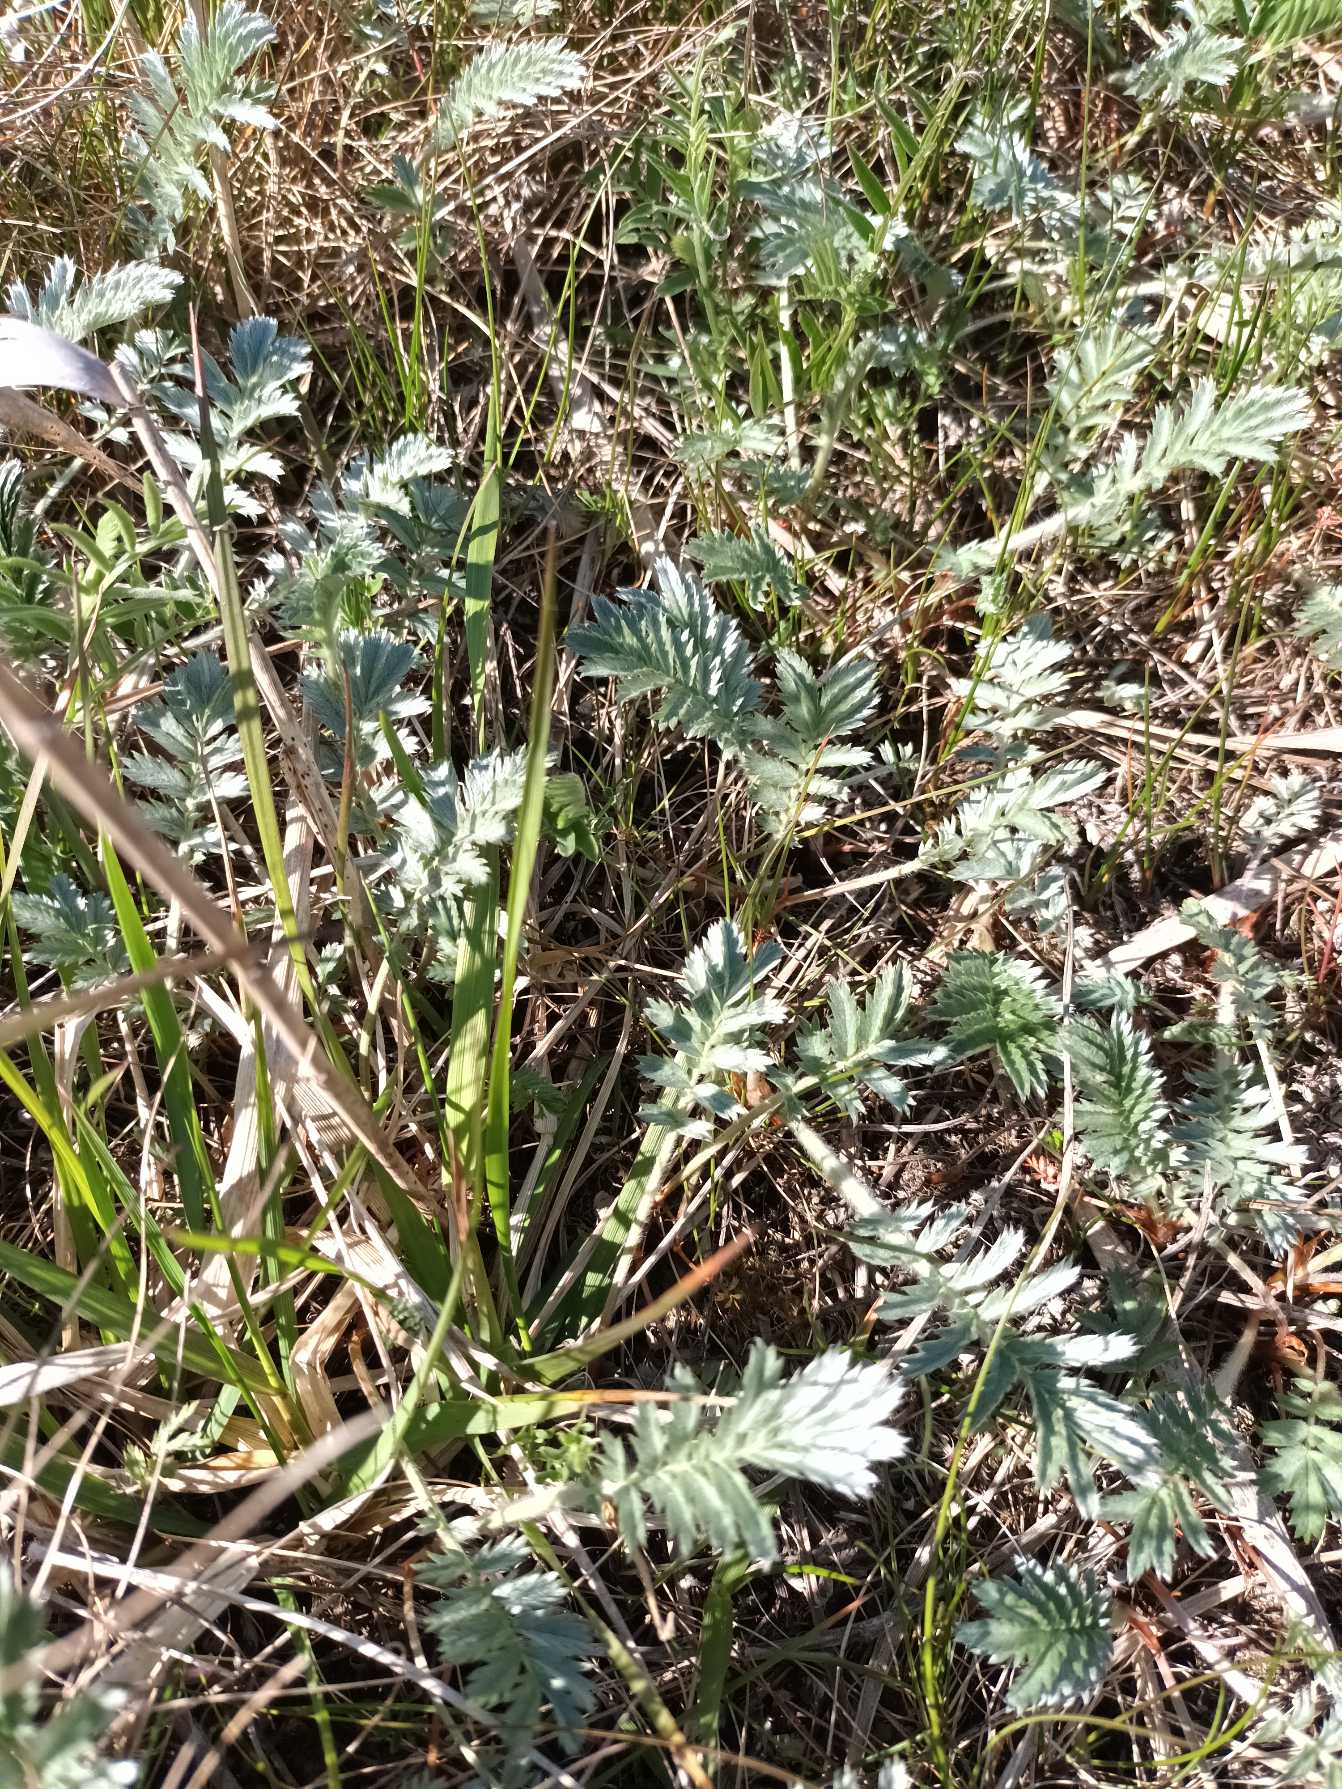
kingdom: Plantae
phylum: Tracheophyta
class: Magnoliopsida
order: Rosales
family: Rosaceae
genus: Argentina
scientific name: Argentina anserina
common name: Gåsepotentil
